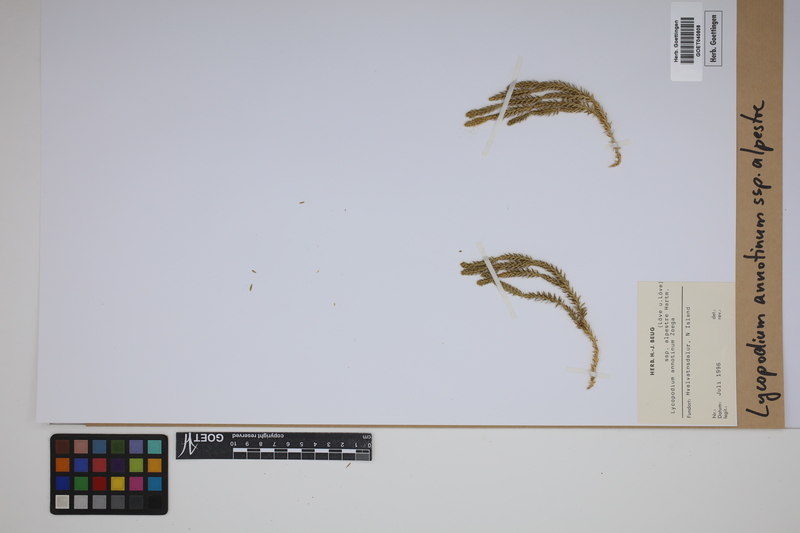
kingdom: Plantae
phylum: Tracheophyta
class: Lycopodiopsida
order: Lycopodiales
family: Lycopodiaceae
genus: Spinulum
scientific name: Spinulum annotinum
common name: Interrupted club-moss
